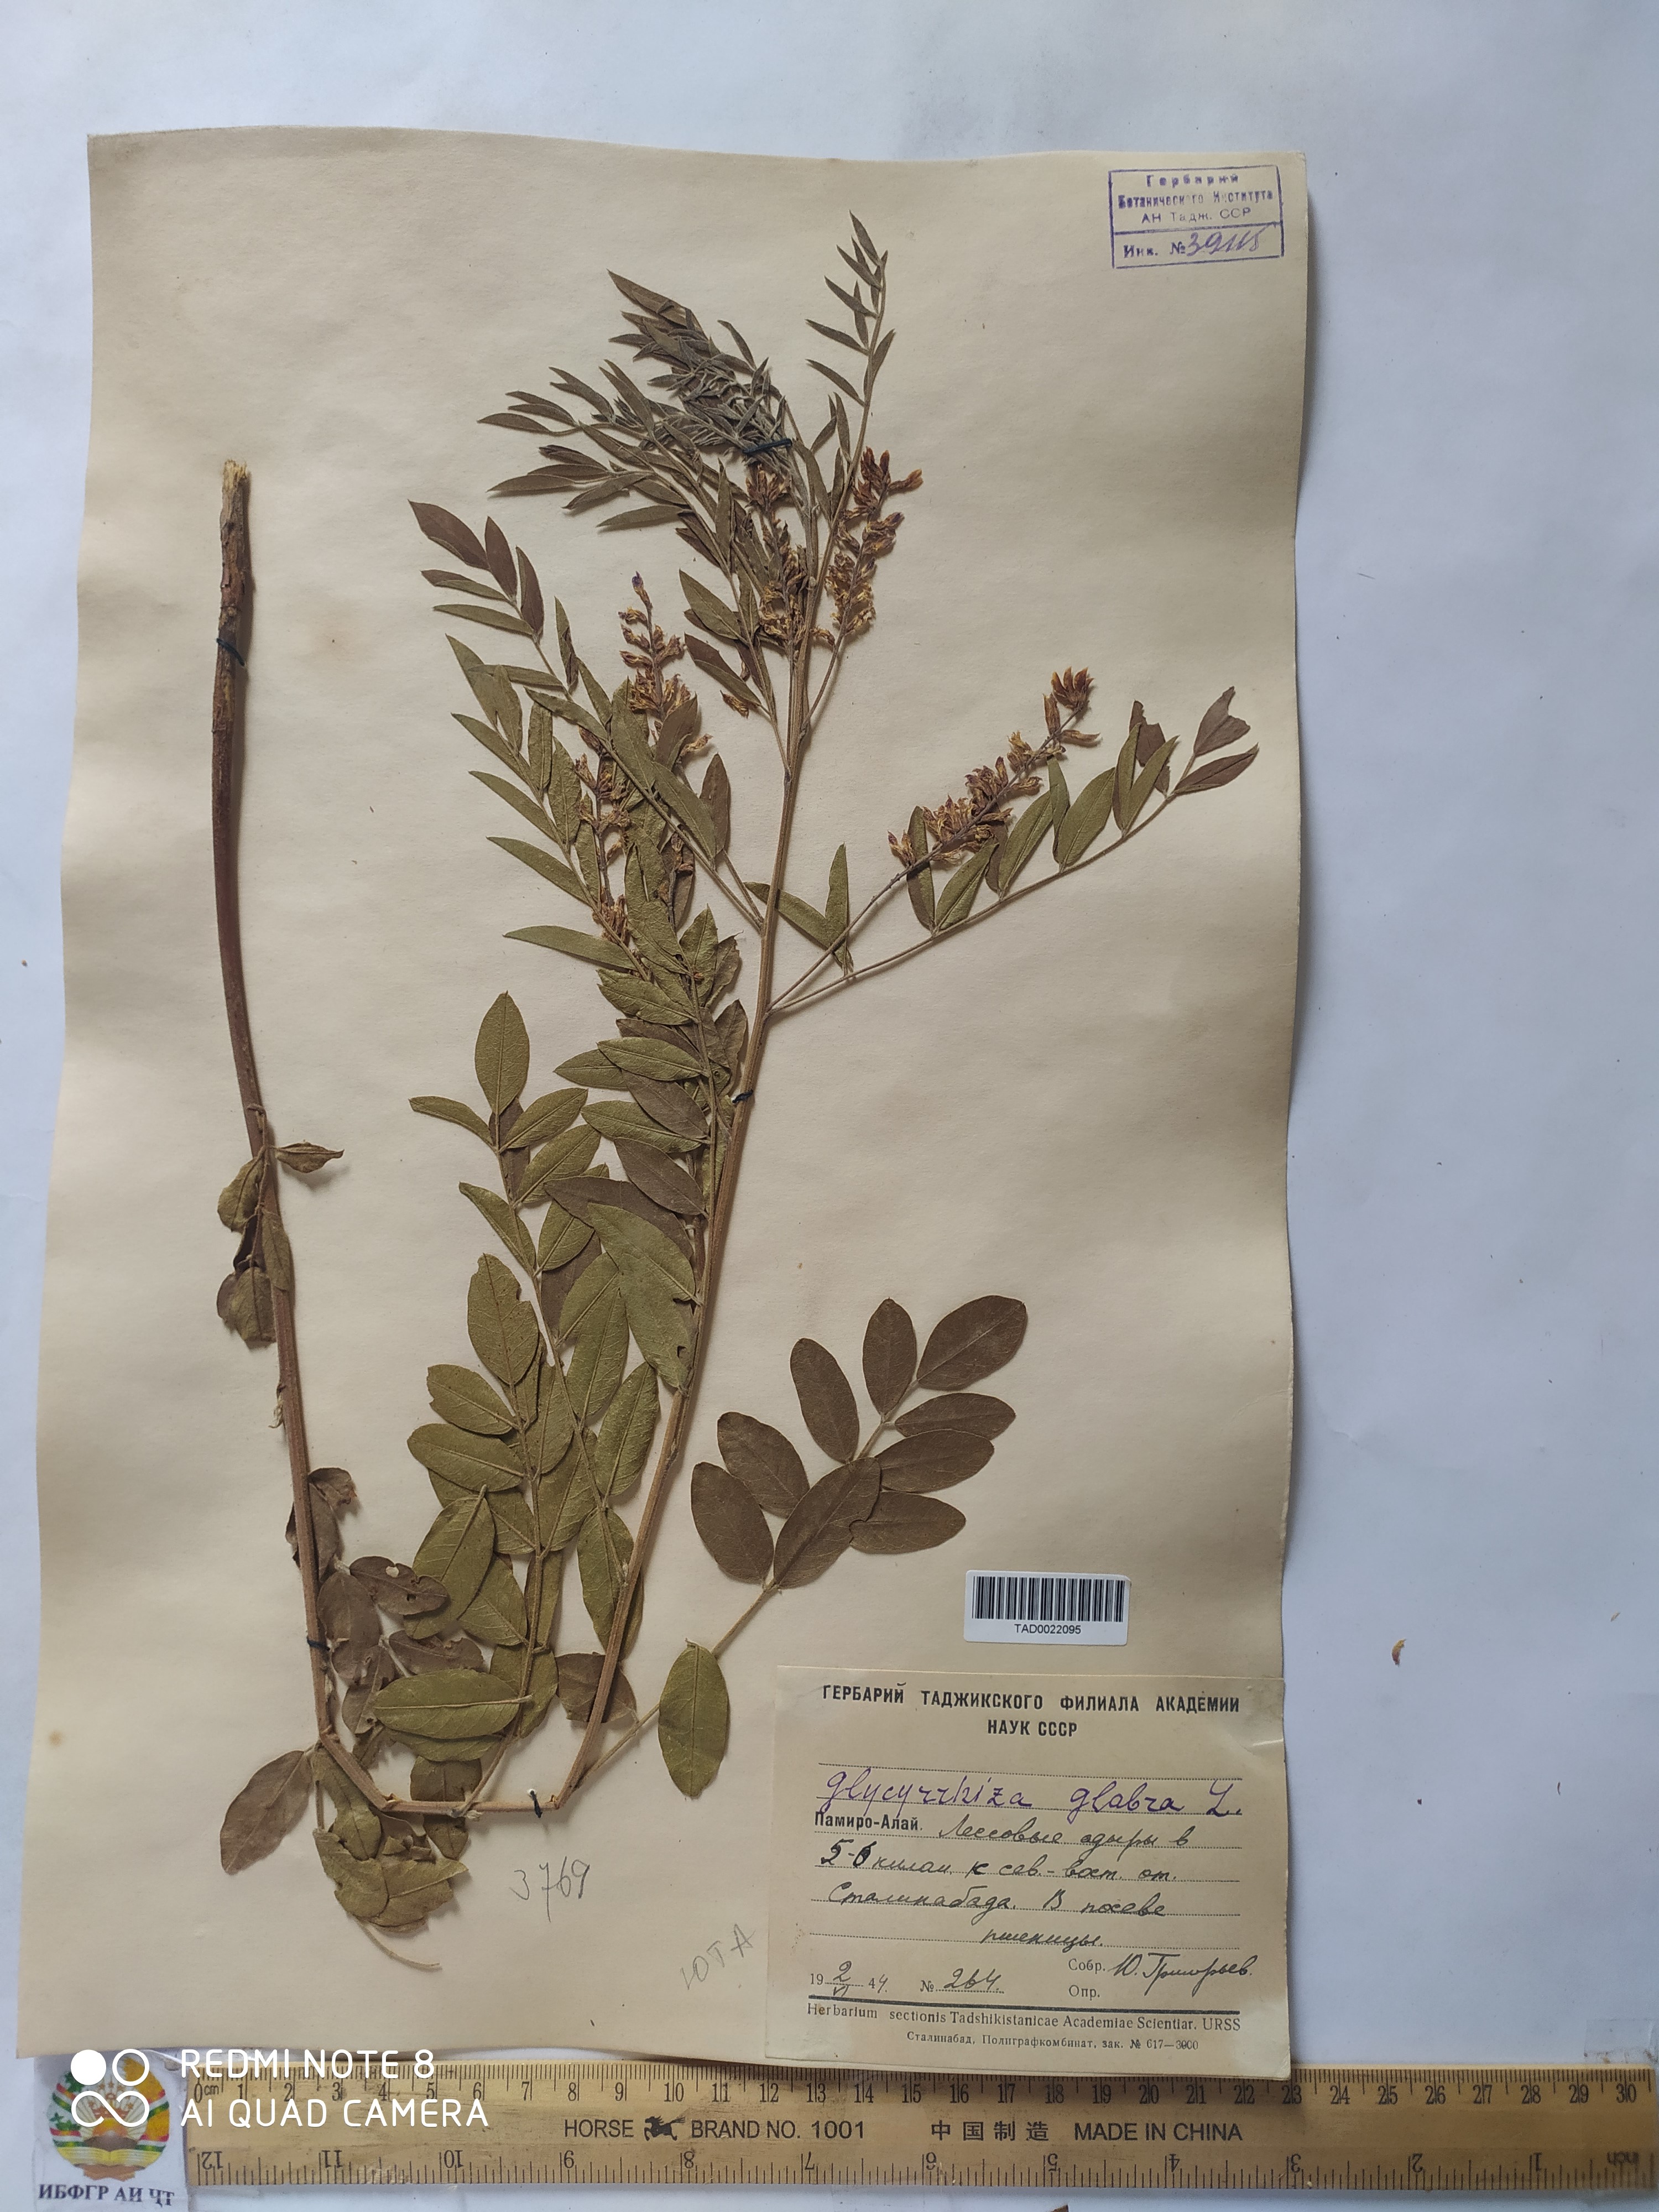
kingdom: Plantae
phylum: Tracheophyta
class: Magnoliopsida
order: Fabales
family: Fabaceae
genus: Glycyrrhiza
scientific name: Glycyrrhiza glabra
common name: Liquorice
